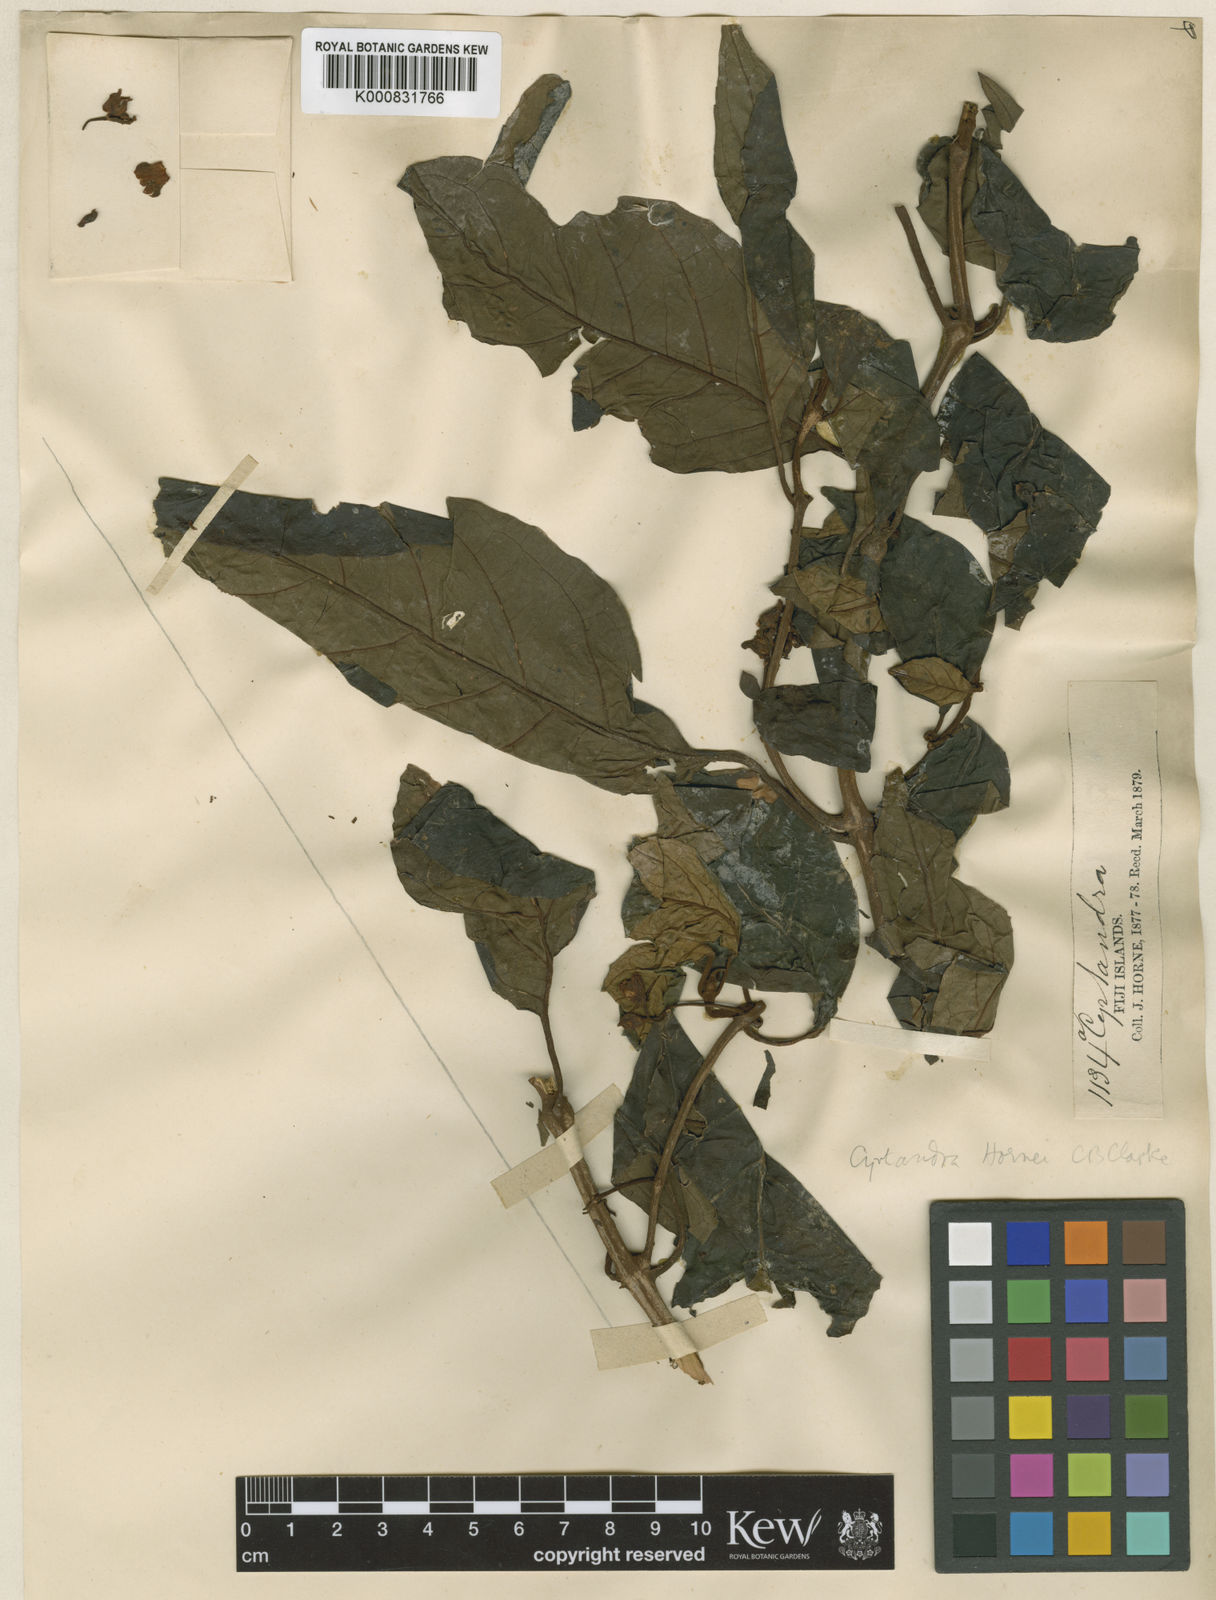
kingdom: Plantae
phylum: Tracheophyta
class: Magnoliopsida
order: Lamiales
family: Gesneriaceae
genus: Cyrtandra
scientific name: Cyrtandra hornei
